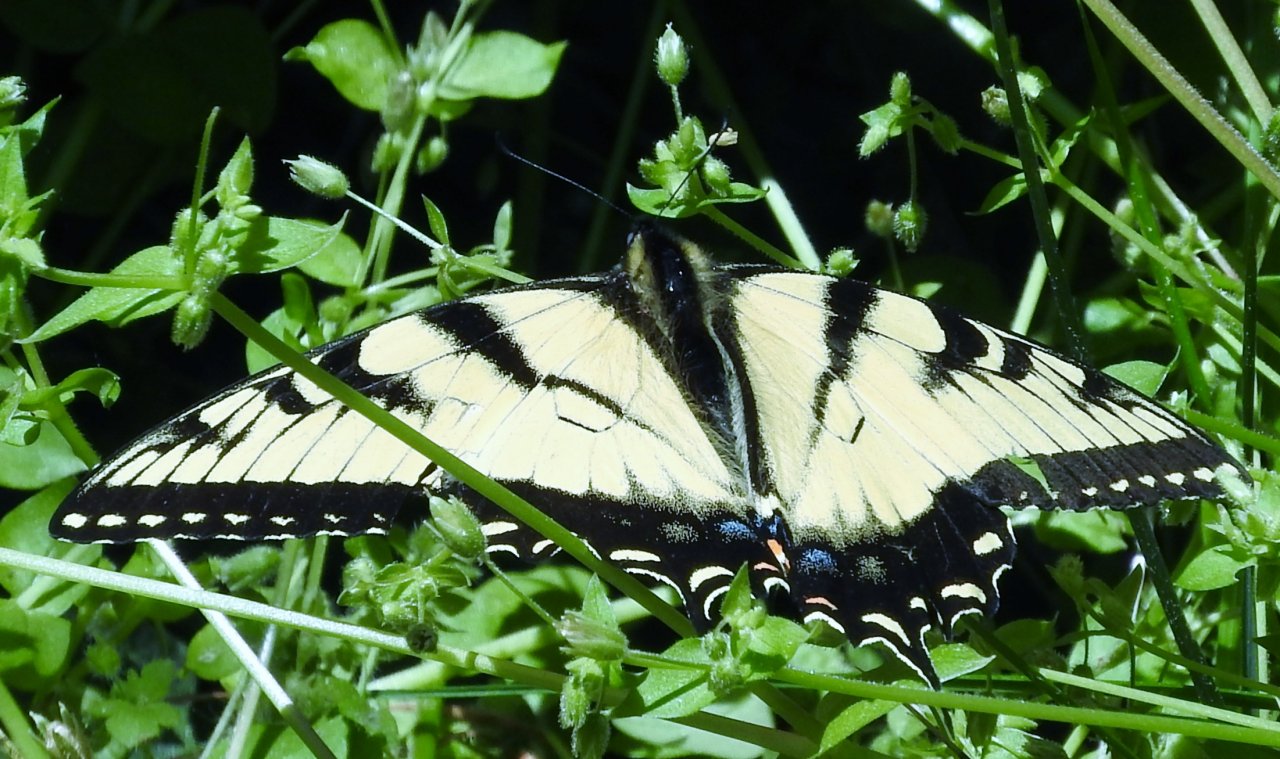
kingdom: Animalia
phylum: Arthropoda
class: Insecta
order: Lepidoptera
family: Papilionidae
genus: Pterourus
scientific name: Pterourus glaucus
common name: Eastern Tiger Swallowtail
